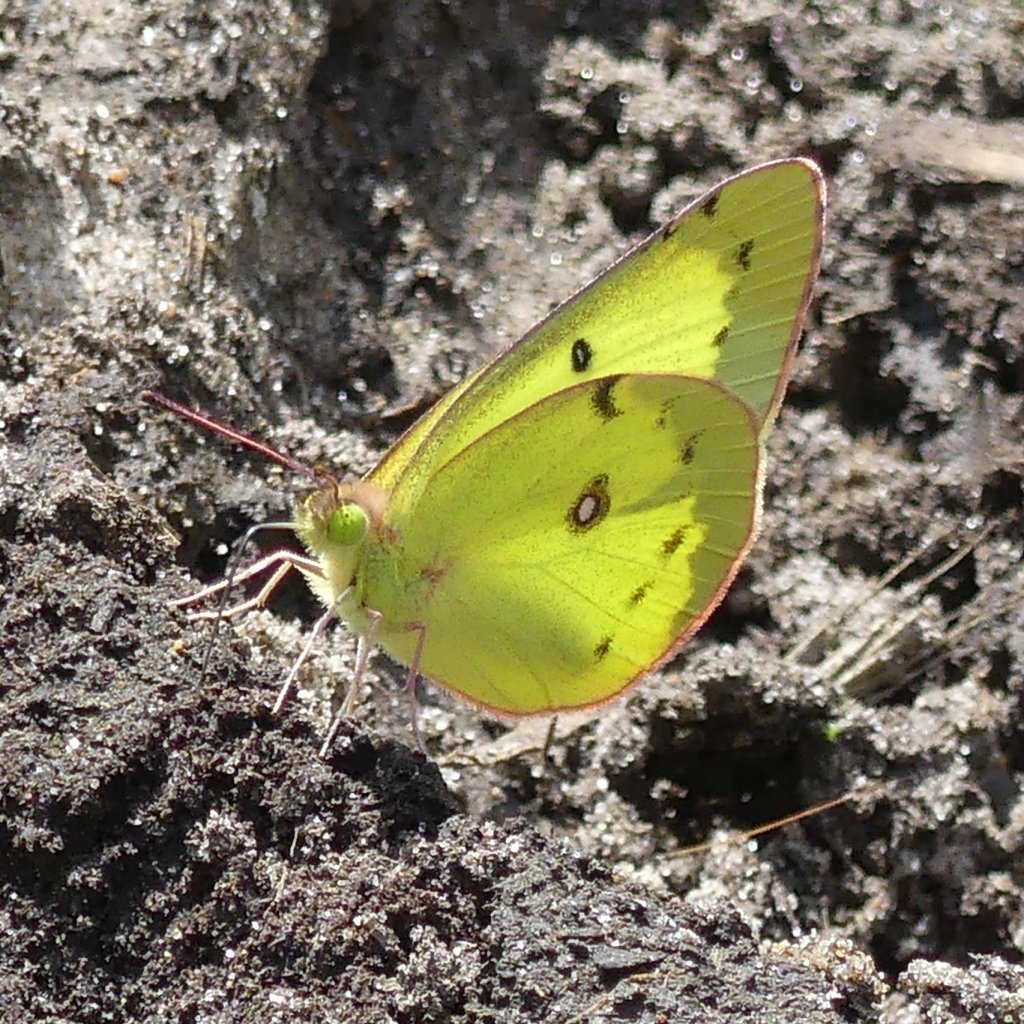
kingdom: Animalia
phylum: Arthropoda
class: Insecta
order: Lepidoptera
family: Pieridae
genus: Colias
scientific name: Colias philodice
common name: Clouded Sulphur
